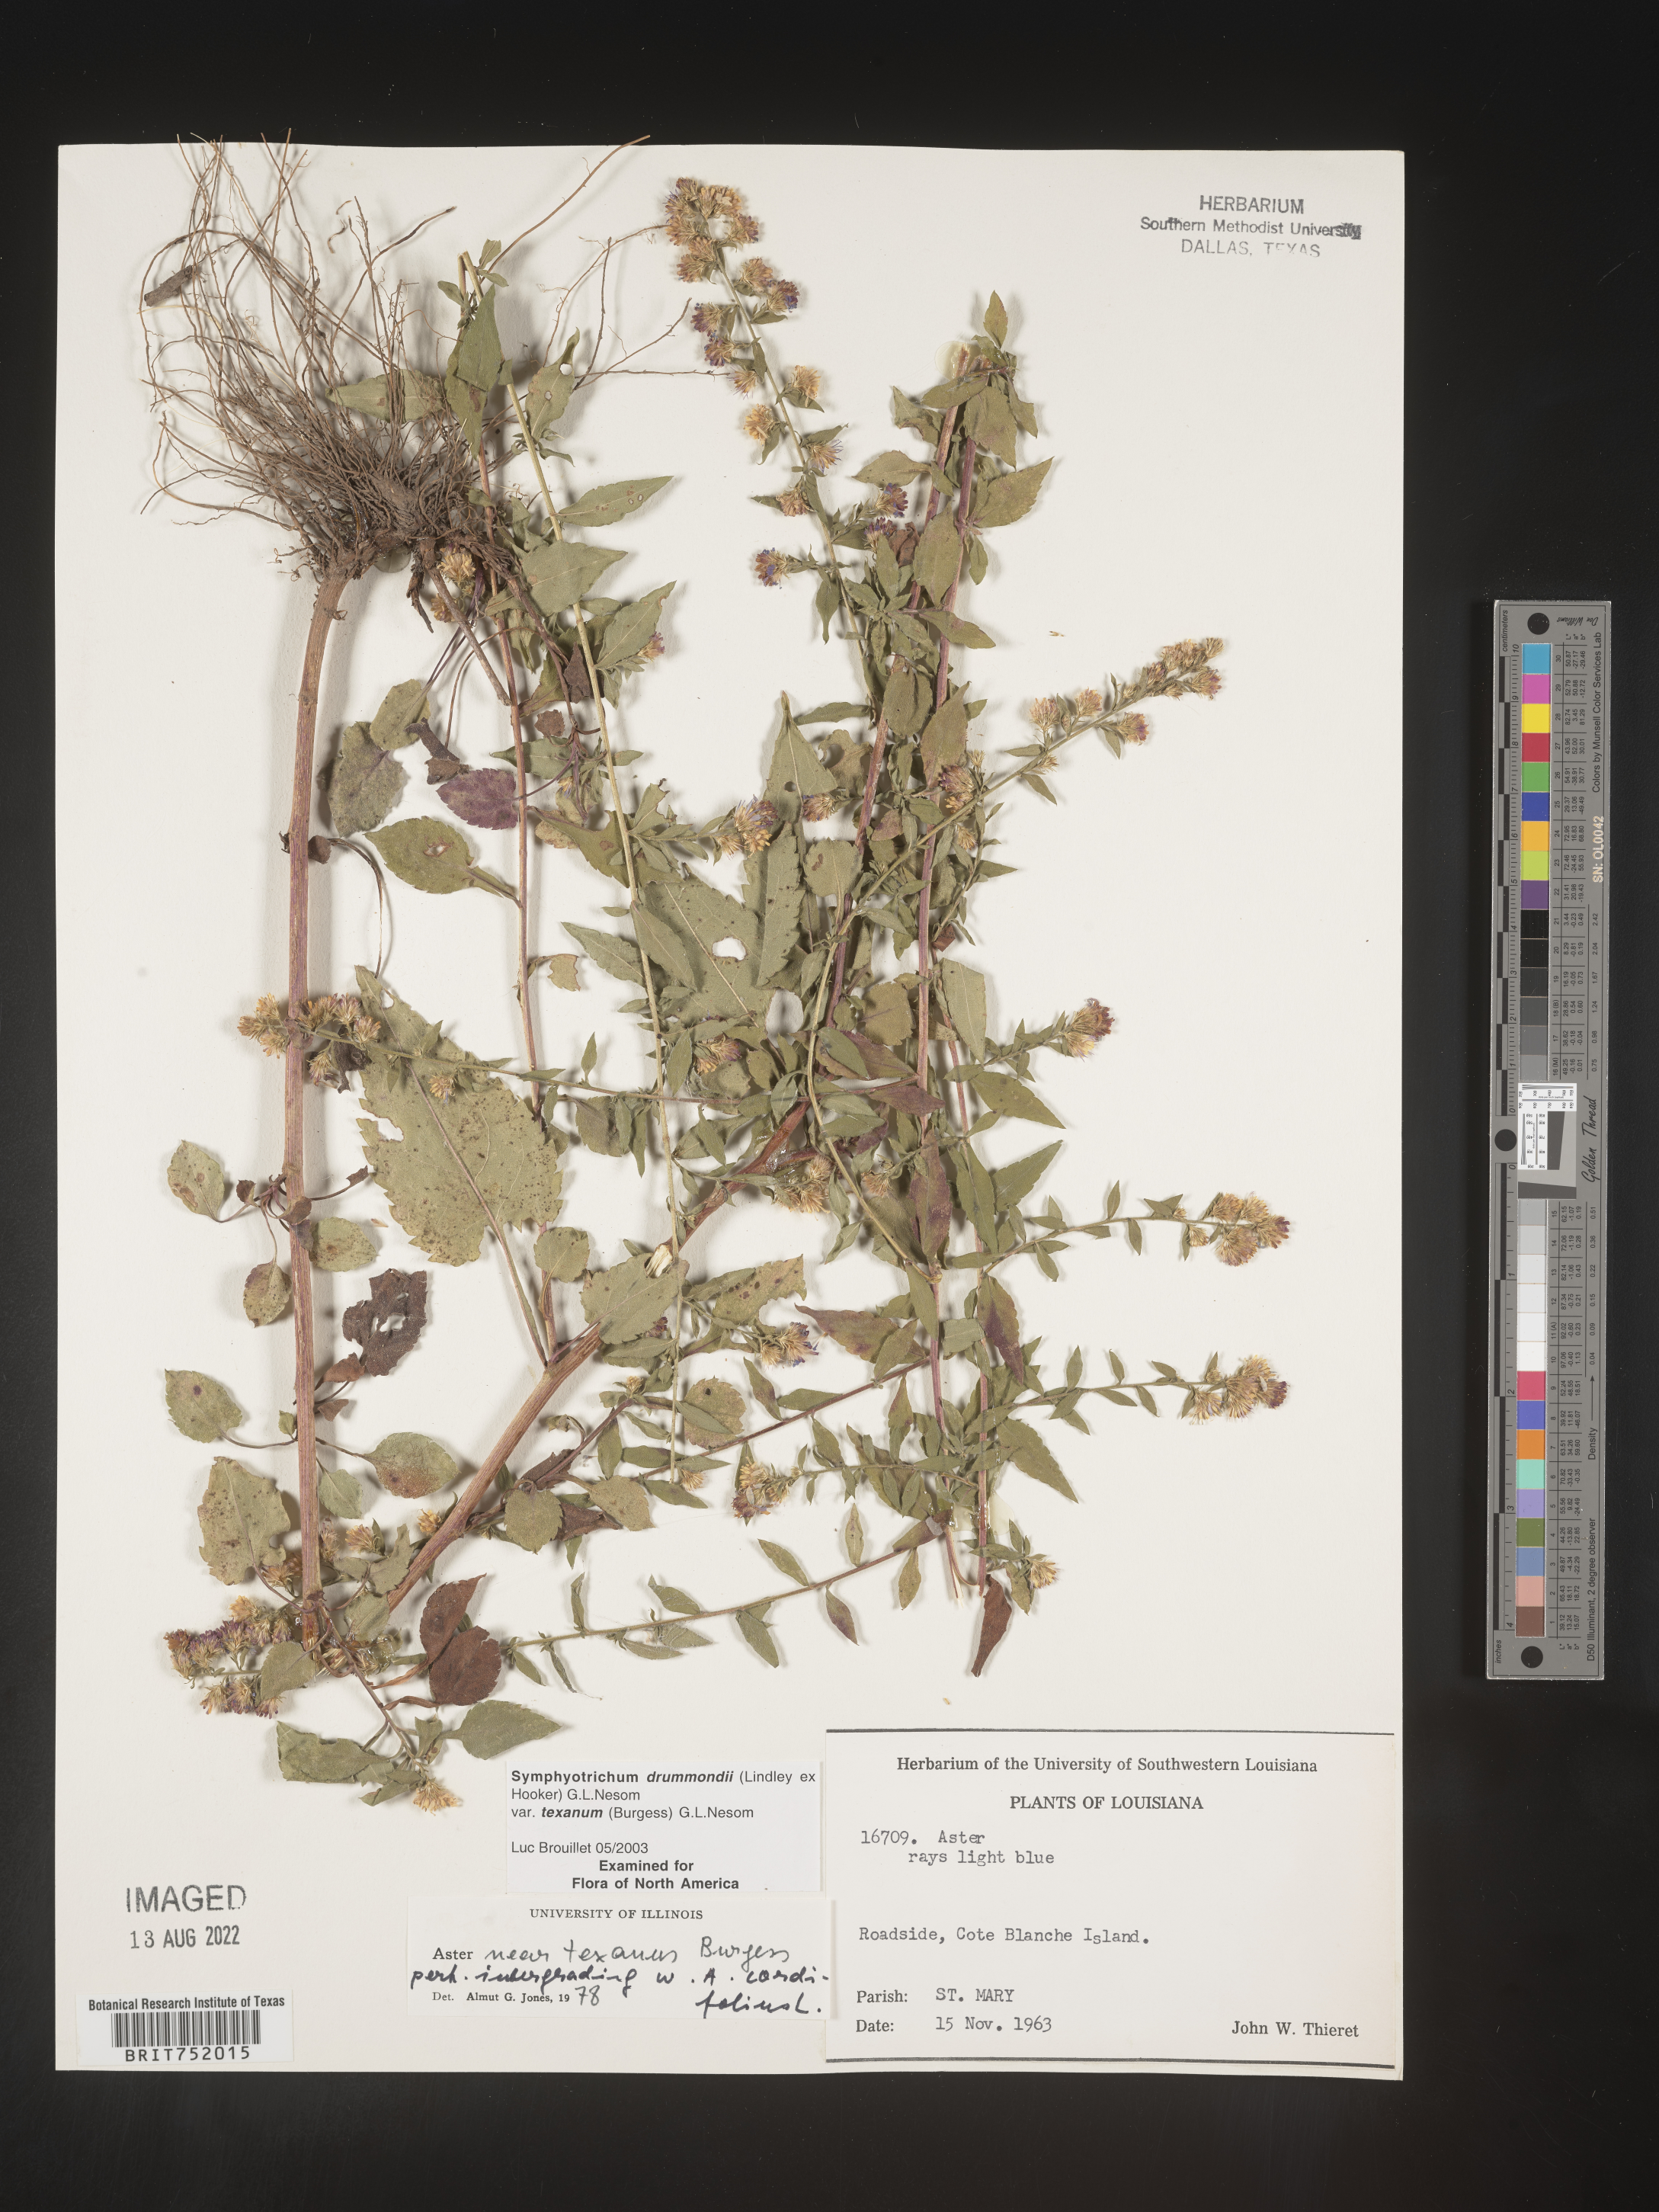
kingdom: Plantae
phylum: Tracheophyta
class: Magnoliopsida
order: Asterales
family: Asteraceae
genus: Symphyotrichum
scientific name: Symphyotrichum drummondii
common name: Drummond's aster
